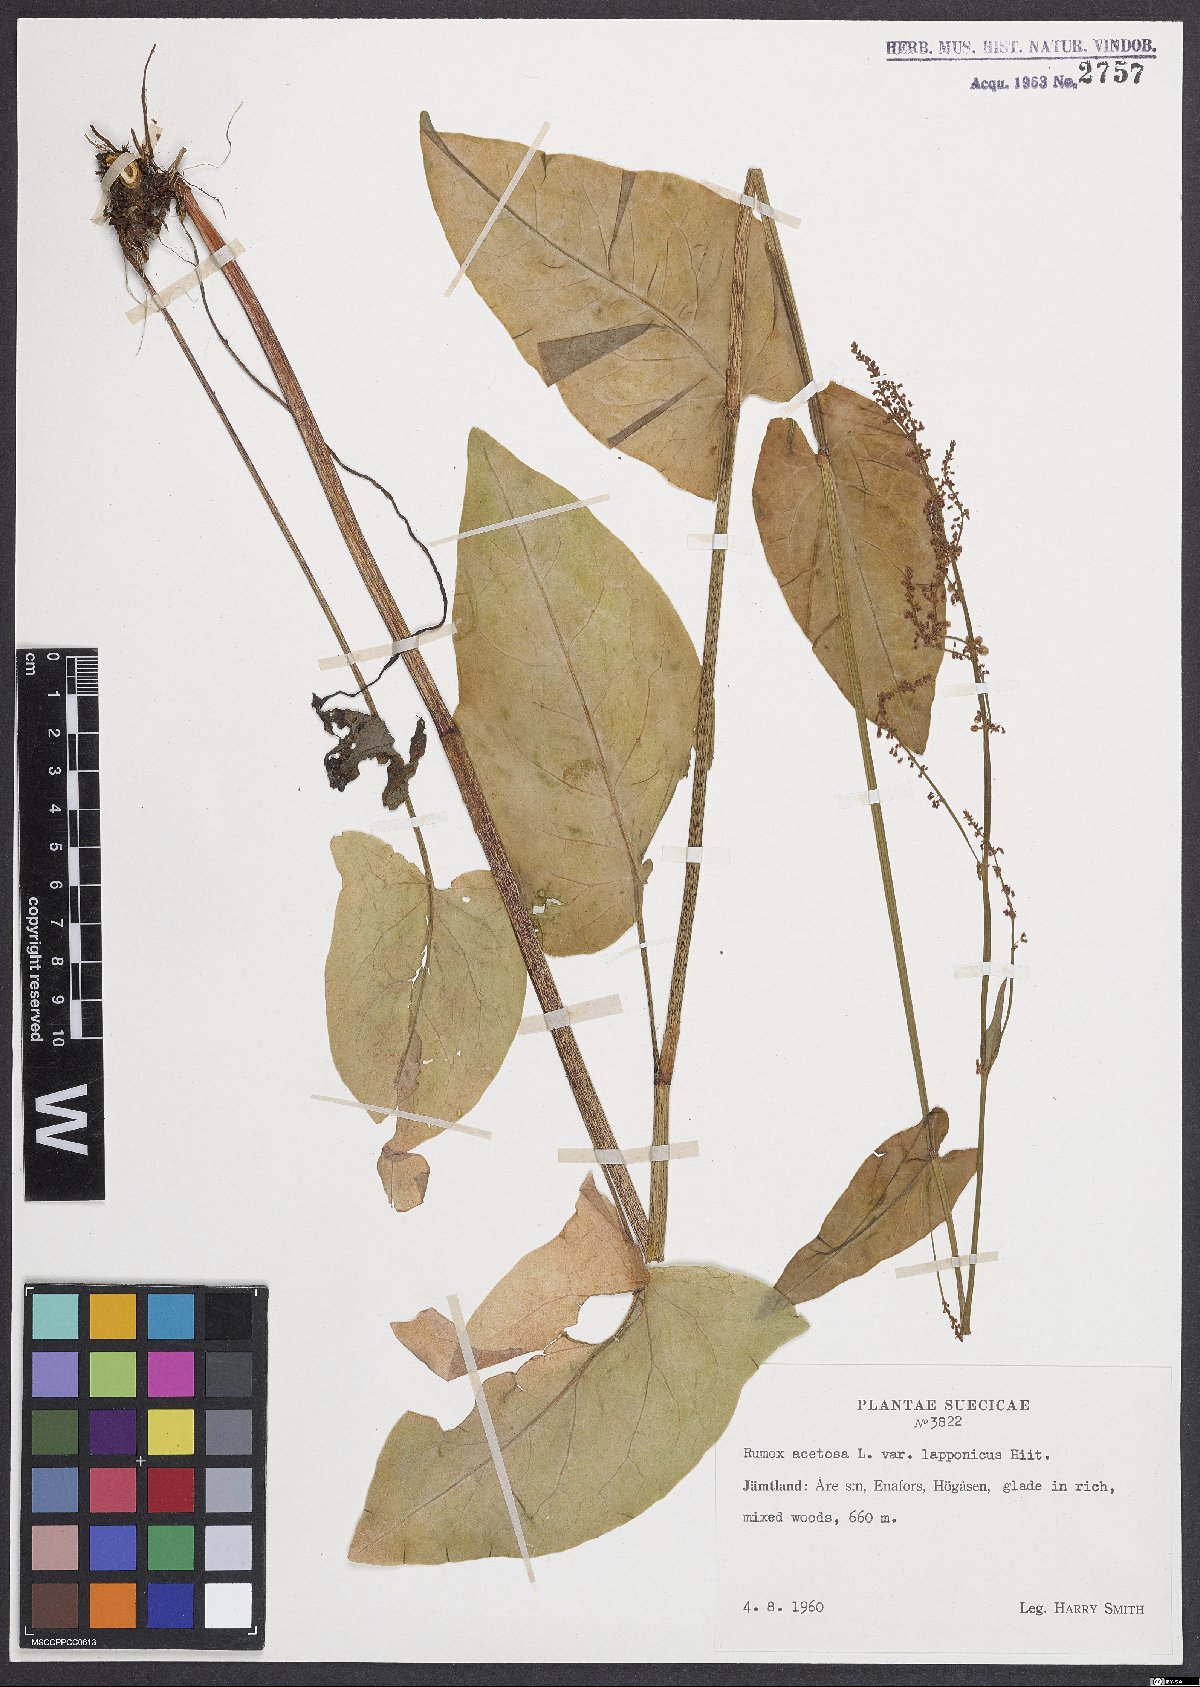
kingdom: Plantae
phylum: Tracheophyta
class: Magnoliopsida
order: Caryophyllales
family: Polygonaceae
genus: Rumex
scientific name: Rumex acetosa
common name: Garden sorrel
